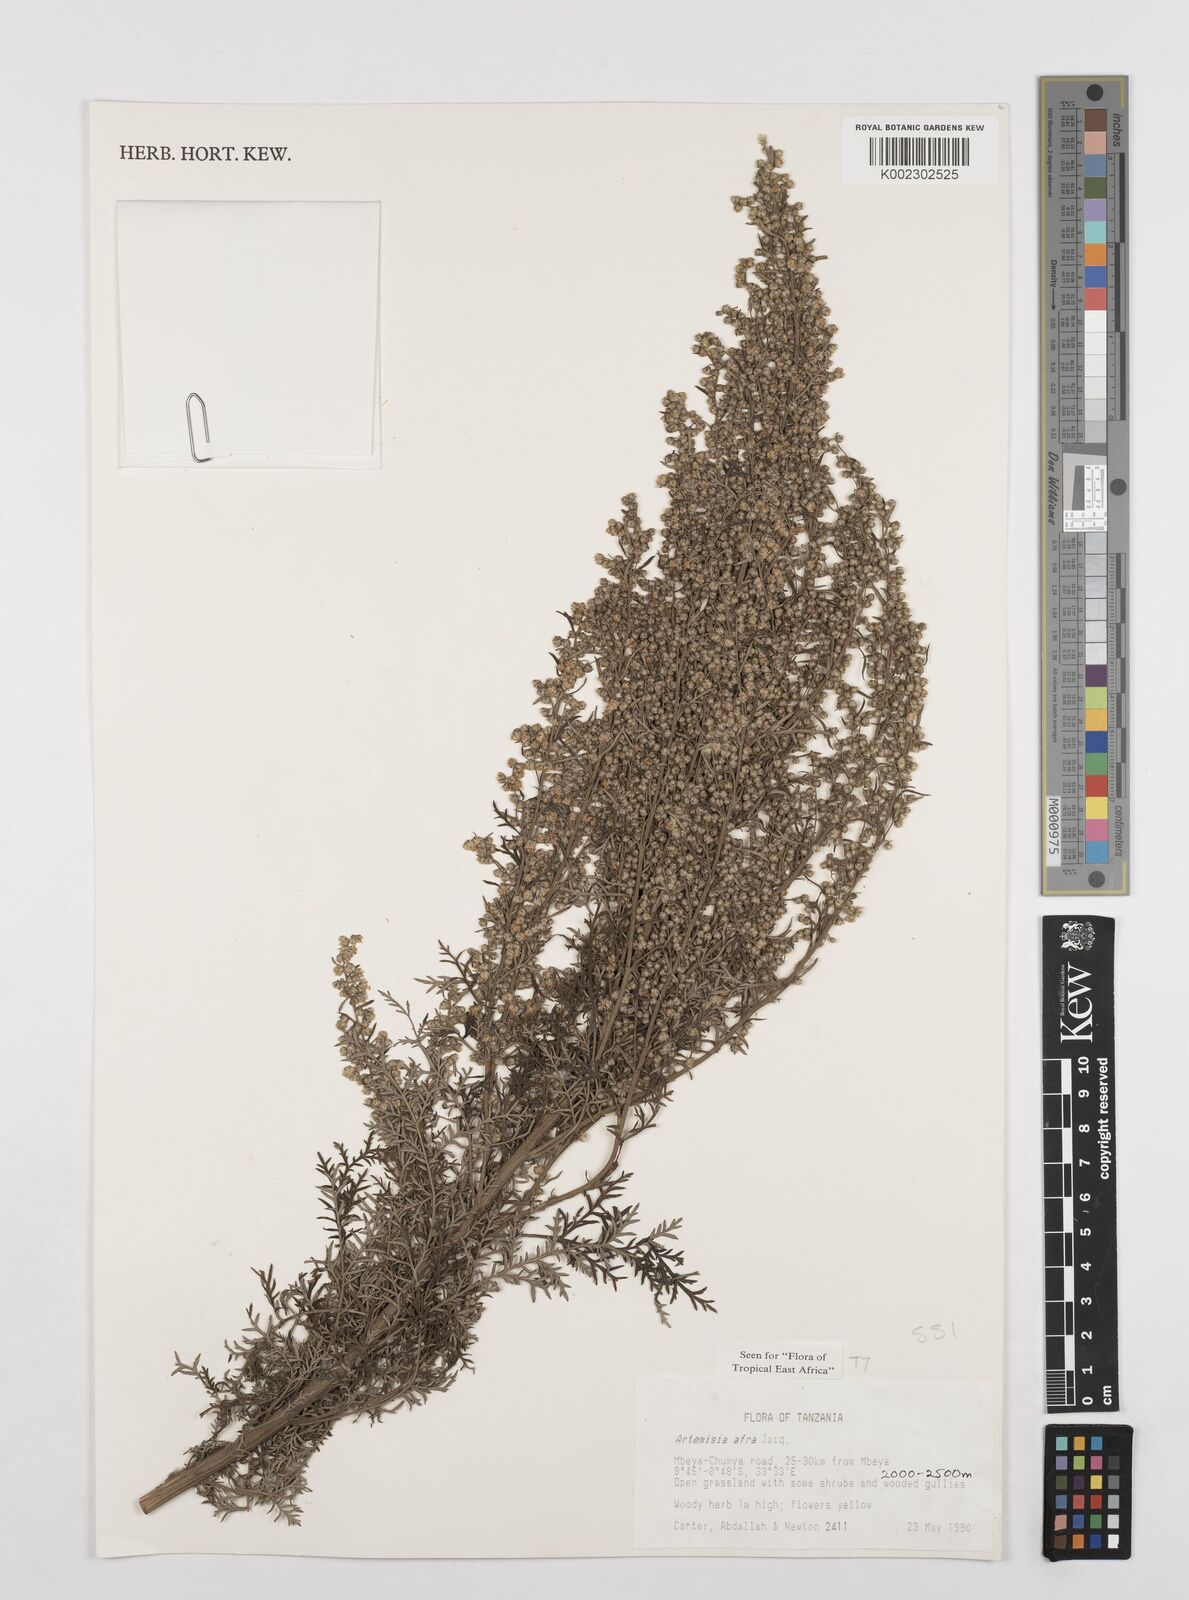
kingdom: Plantae
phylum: Tracheophyta
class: Magnoliopsida
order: Asterales
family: Asteraceae
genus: Artemisia
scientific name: Artemisia afra
